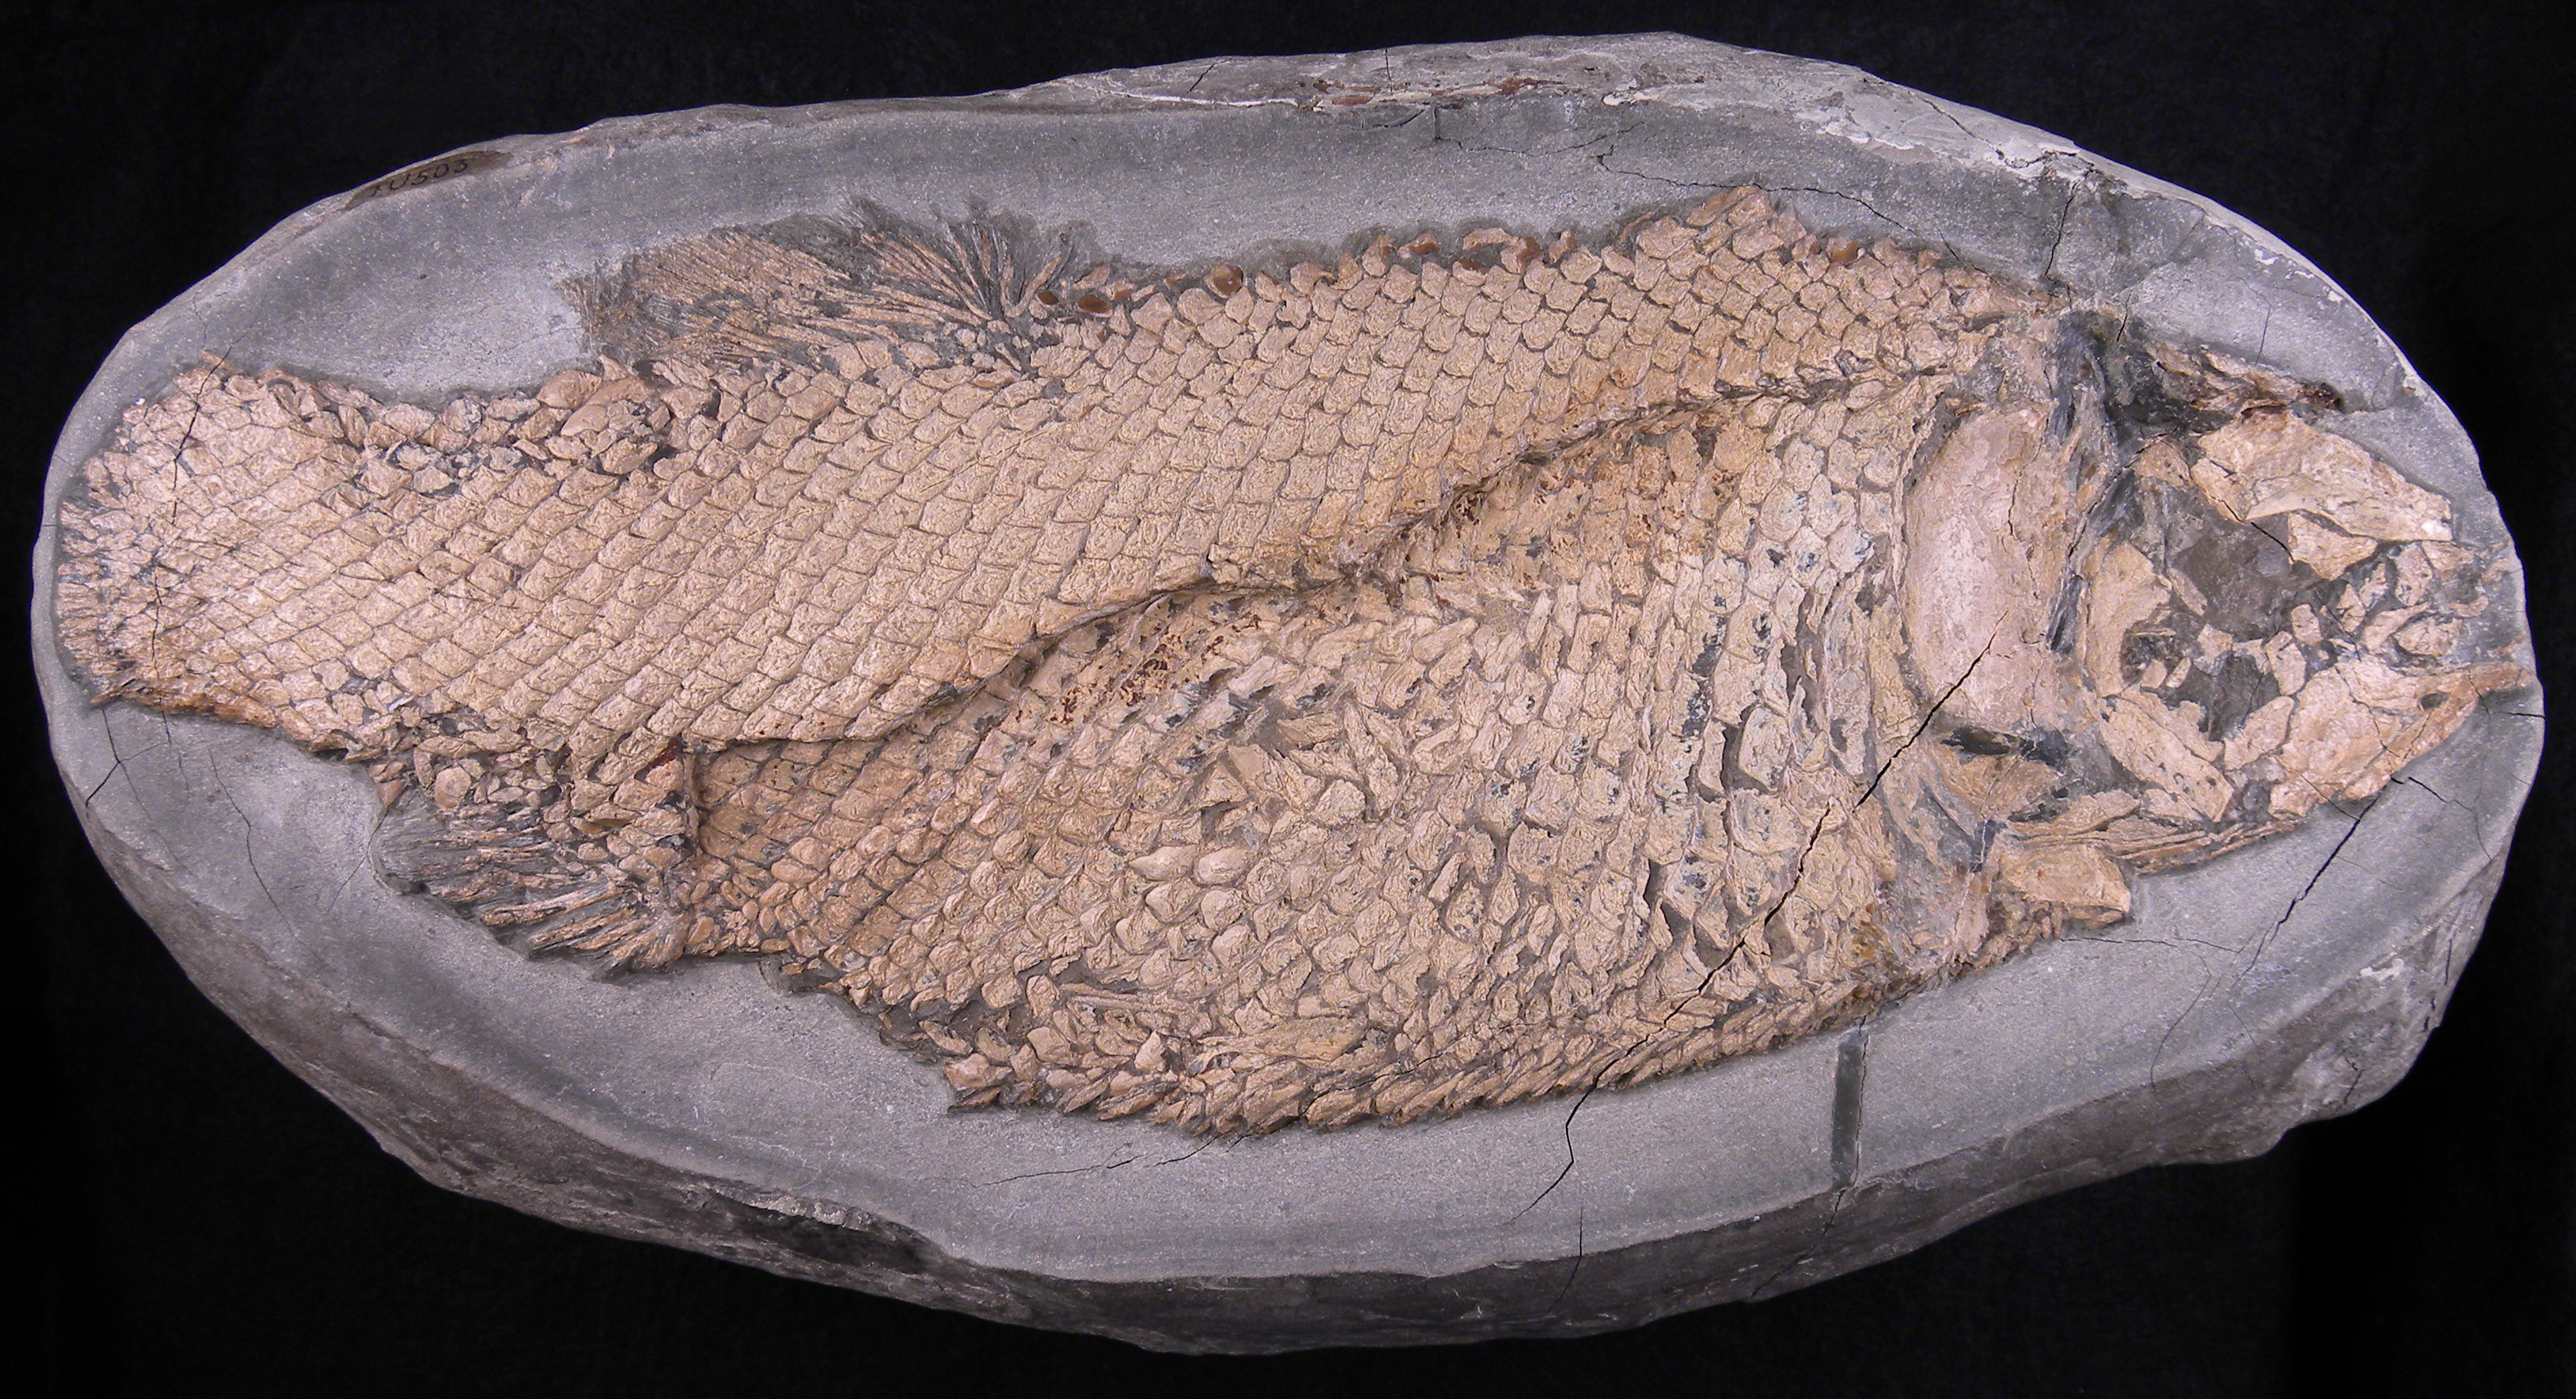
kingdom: Animalia
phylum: Chordata
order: Lepisosteiformes
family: Lepidotidae
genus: Lepidotes
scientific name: Lepidotes elvensis
